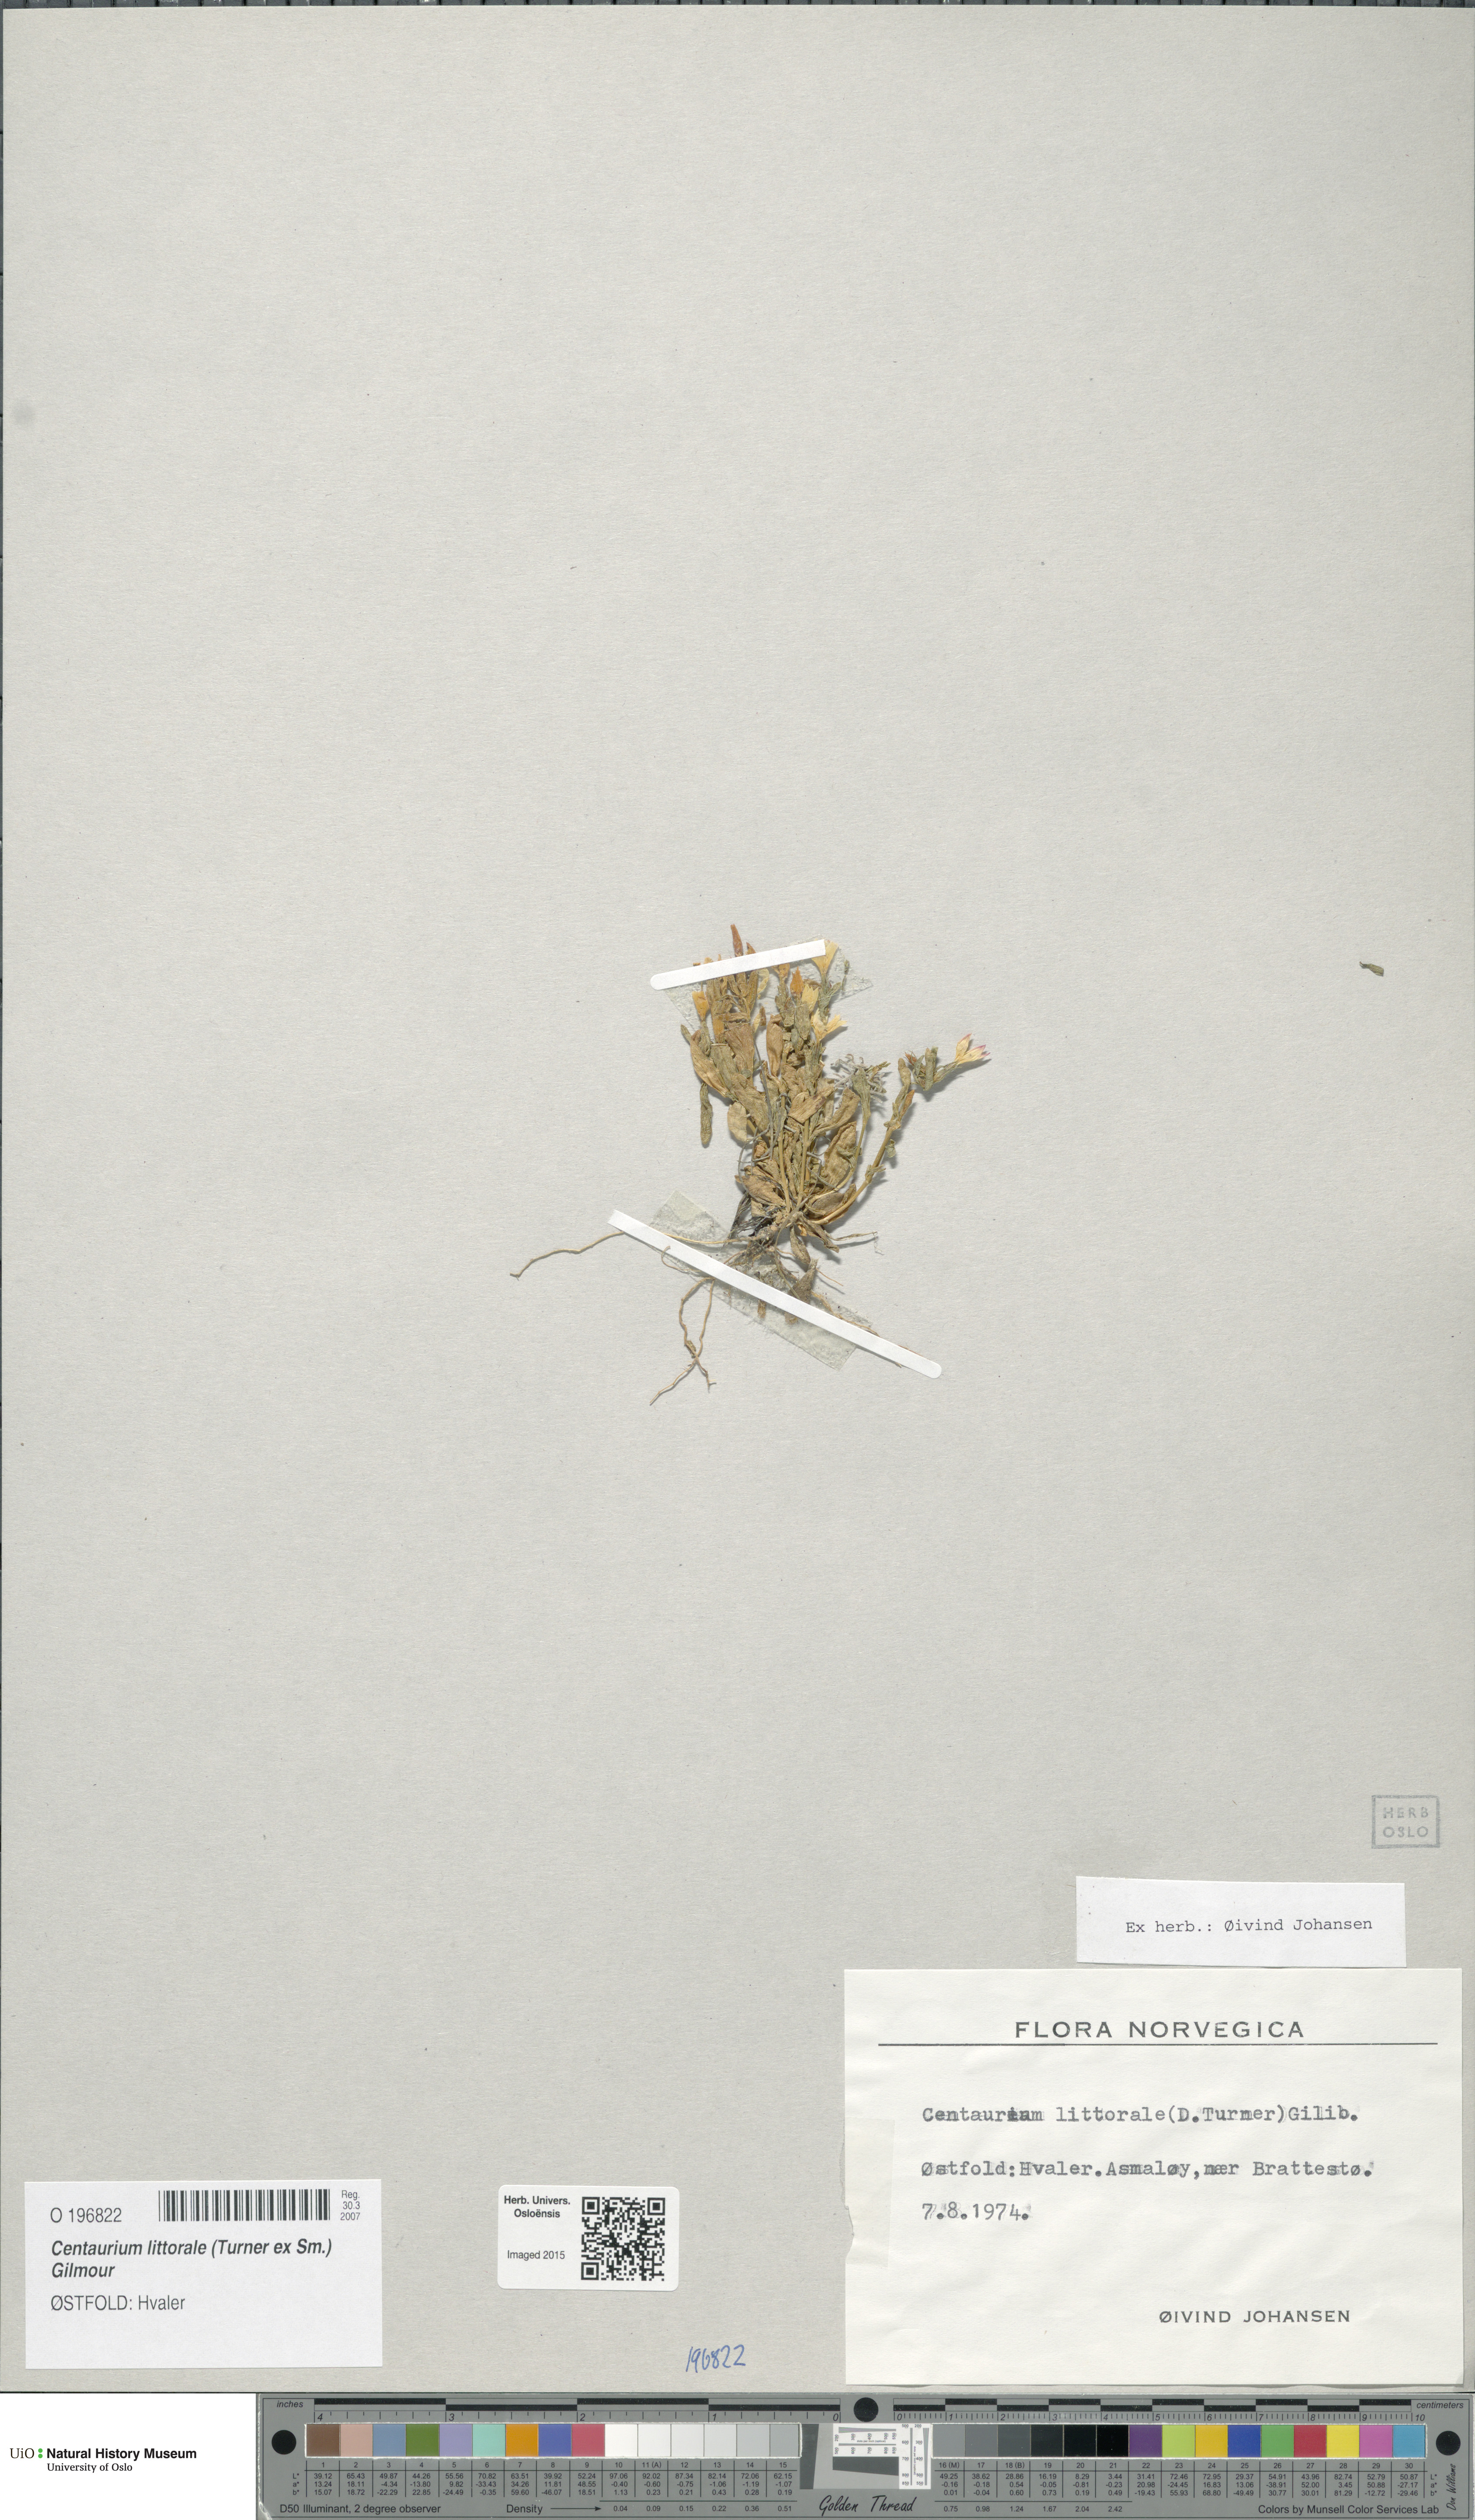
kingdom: Plantae
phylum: Tracheophyta
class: Magnoliopsida
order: Gentianales
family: Gentianaceae
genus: Centaurium
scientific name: Centaurium littorale
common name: Seaside centaury
